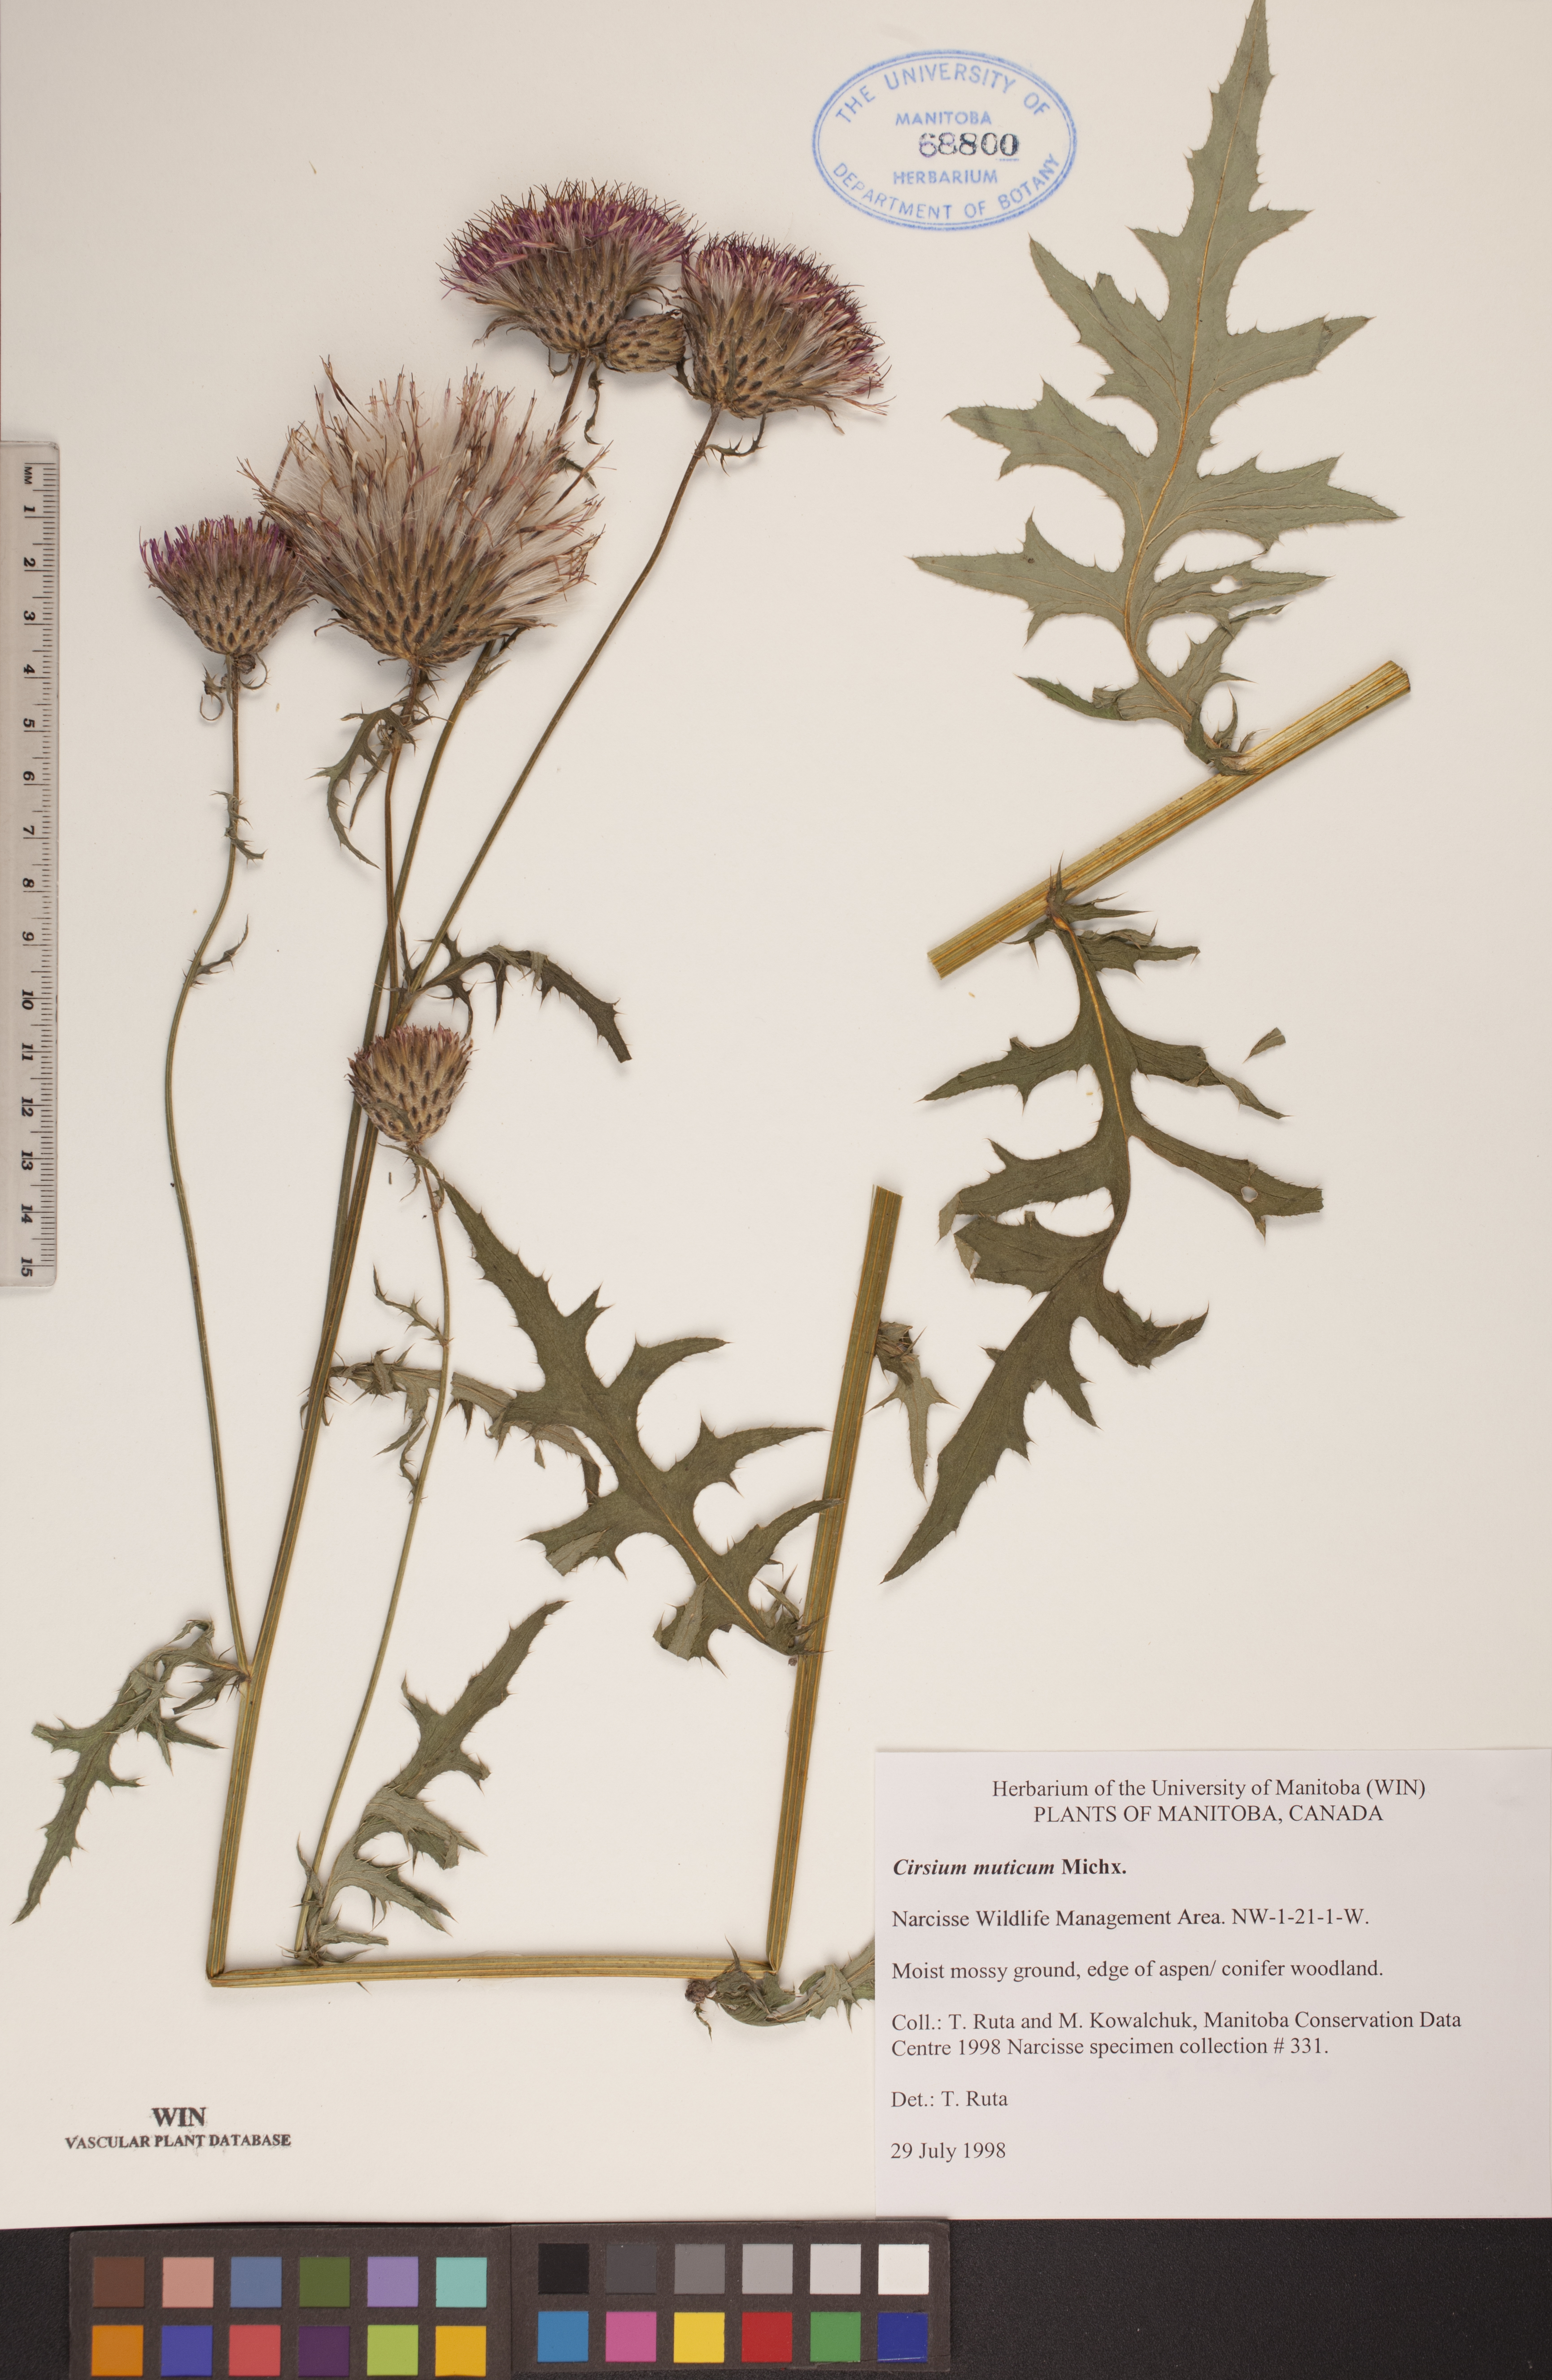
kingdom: Plantae
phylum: Tracheophyta
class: Magnoliopsida
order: Asterales
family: Asteraceae
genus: Cirsium
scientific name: Cirsium muticum
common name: Dunce-nettle
